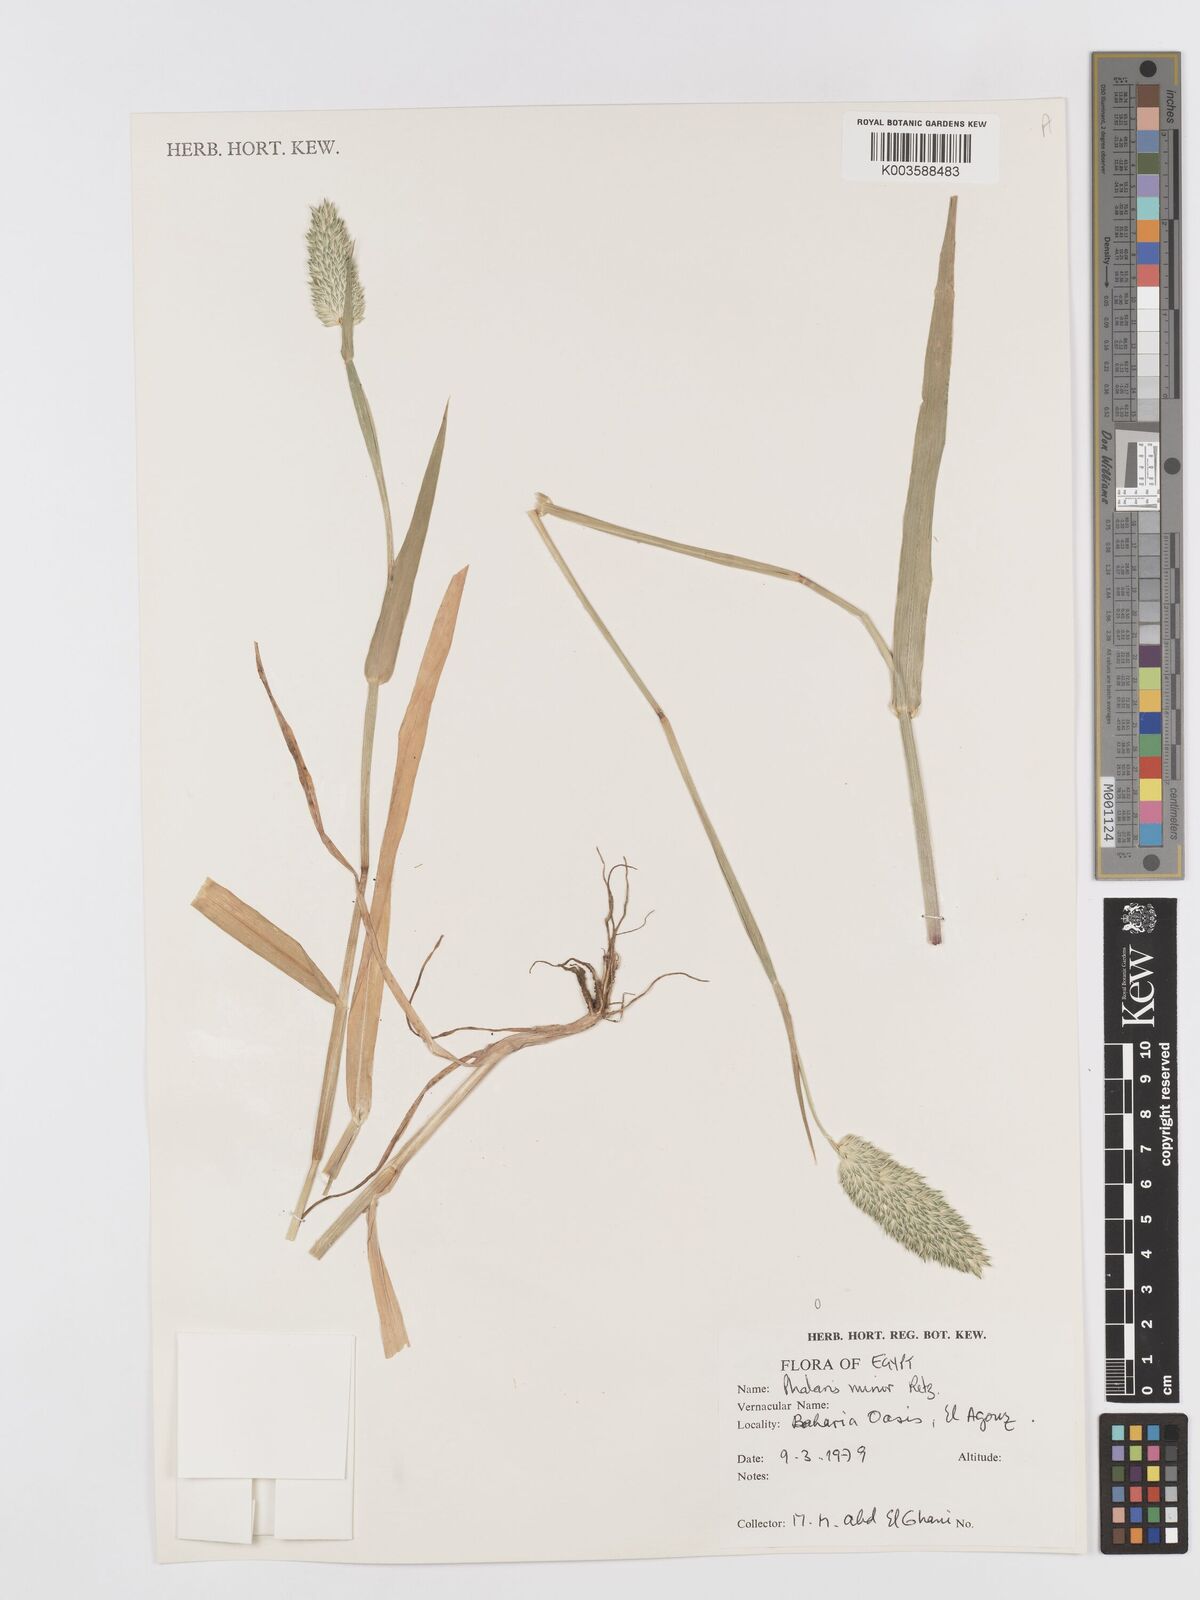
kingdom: Plantae
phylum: Tracheophyta
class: Liliopsida
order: Poales
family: Poaceae
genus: Phalaris
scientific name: Phalaris minor
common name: Littleseed canarygrass
